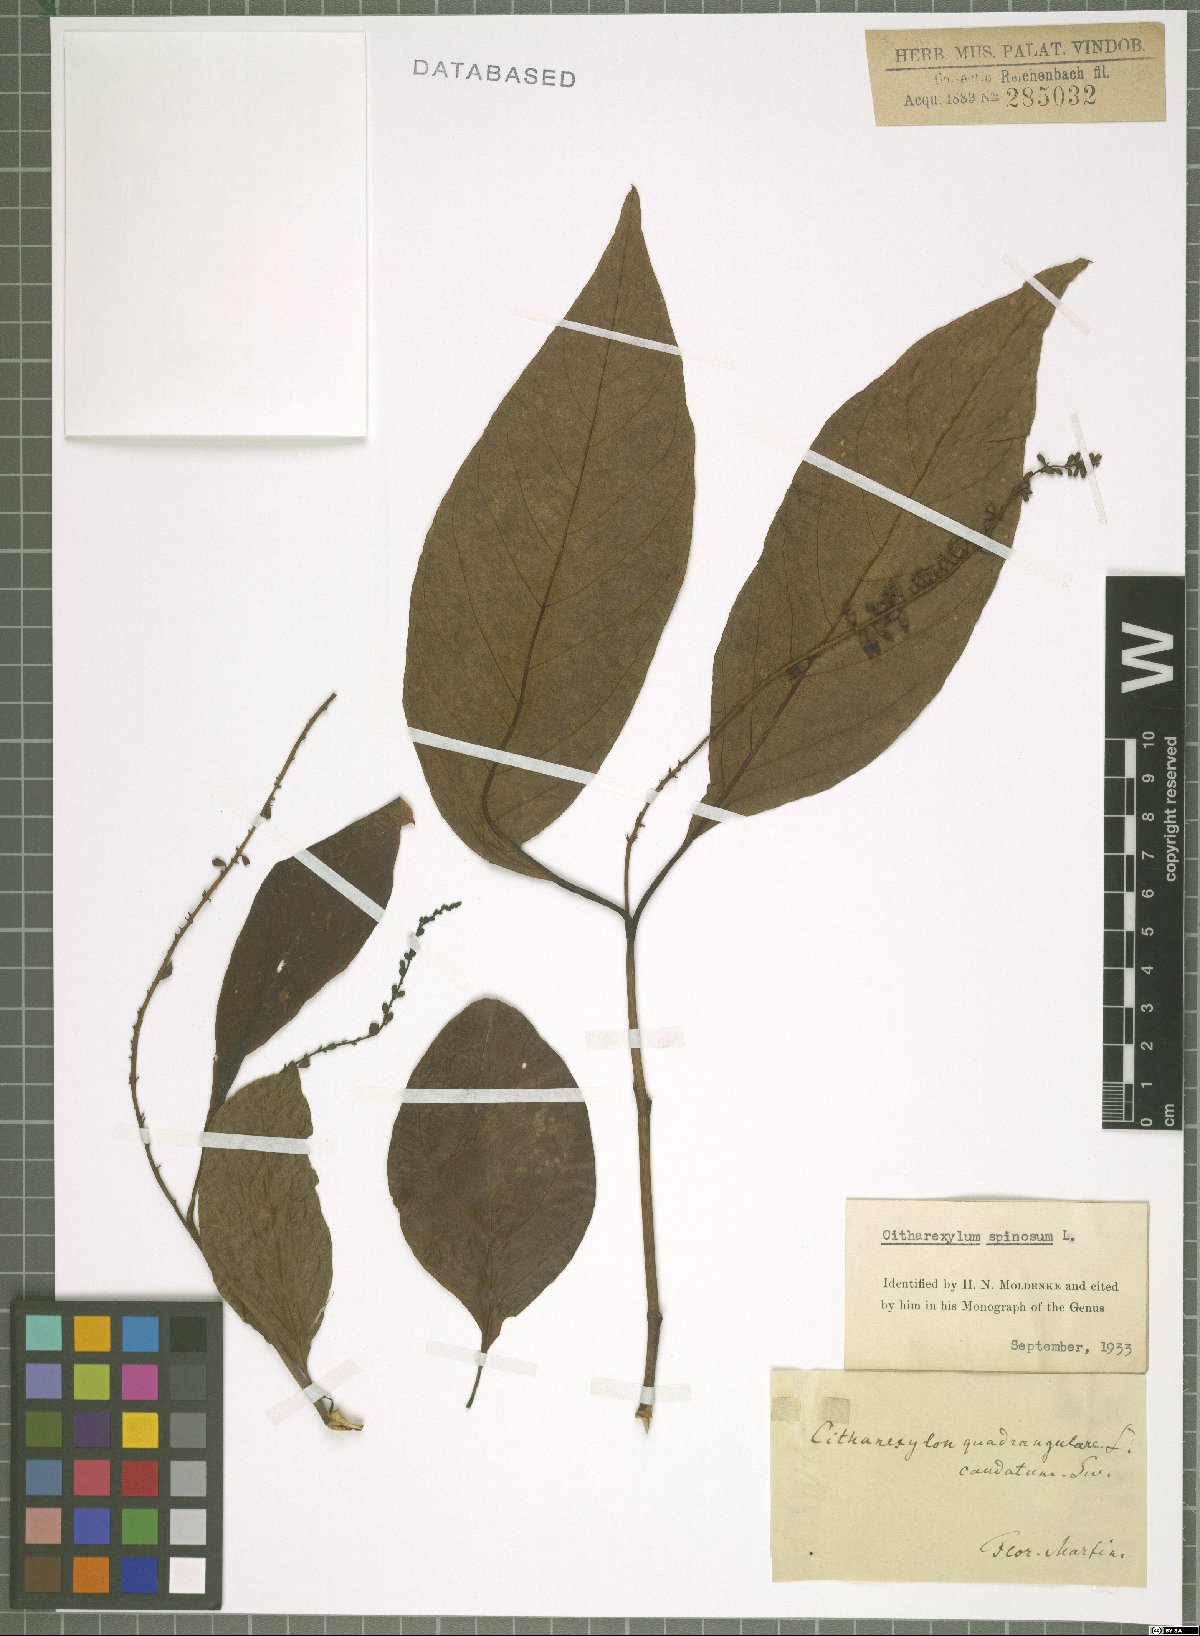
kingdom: Plantae
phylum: Tracheophyta
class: Magnoliopsida
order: Lamiales
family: Verbenaceae
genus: Citharexylum
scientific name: Citharexylum spinosum
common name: Fiddlewood
